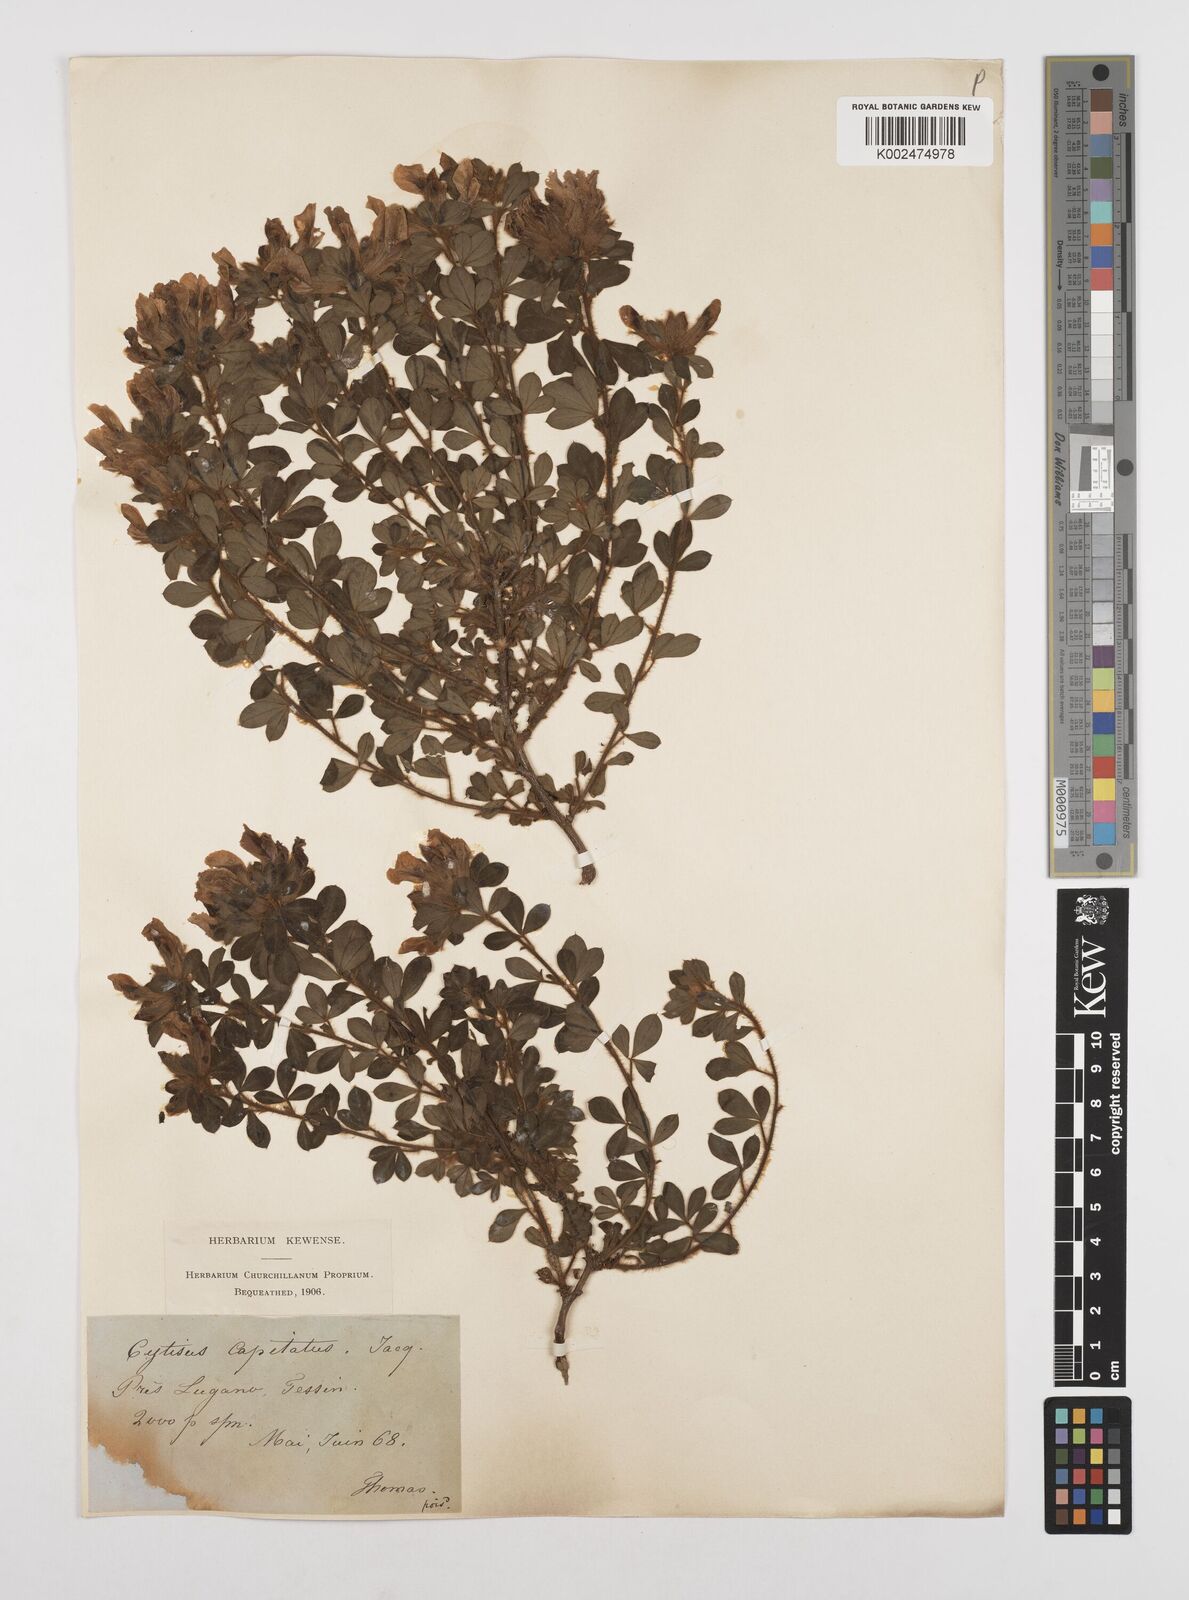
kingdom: Plantae
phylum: Tracheophyta
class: Magnoliopsida
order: Fabales
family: Fabaceae
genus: Chamaecytisus
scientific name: Chamaecytisus hirsutus
